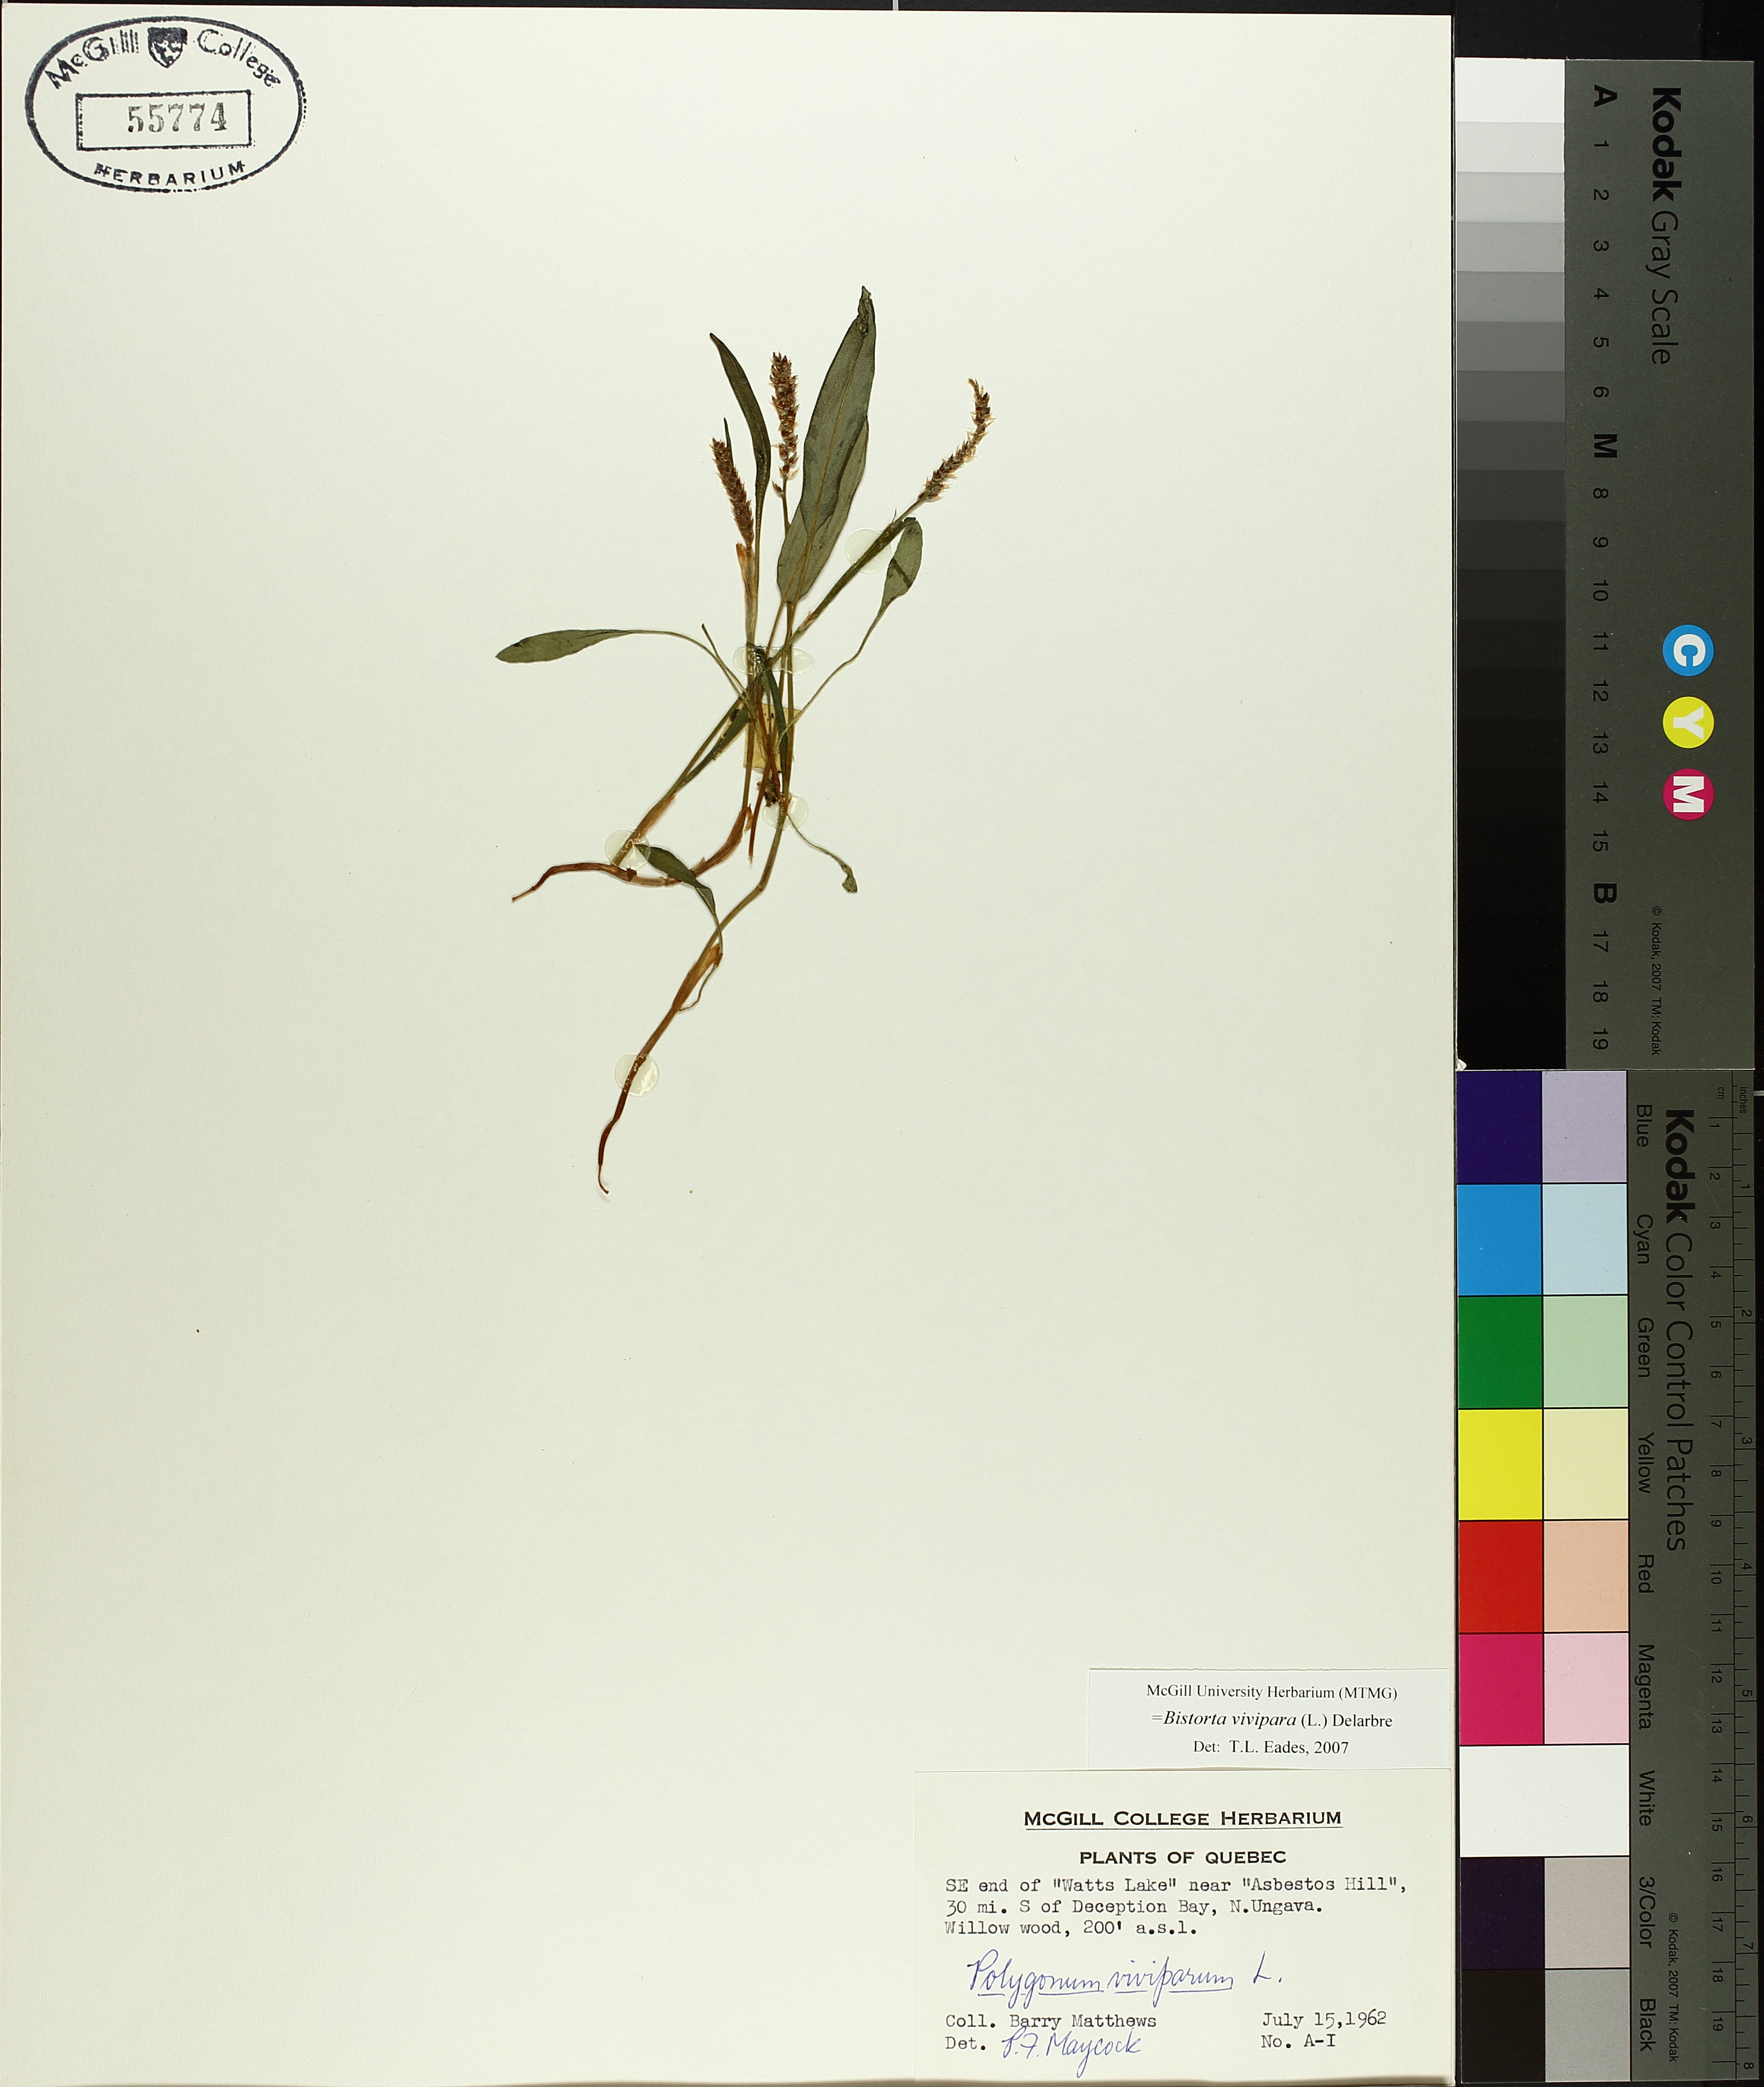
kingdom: Plantae
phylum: Tracheophyta
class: Magnoliopsida
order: Caryophyllales
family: Polygonaceae
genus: Bistorta
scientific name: Bistorta vivipara
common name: Alpine bistort
